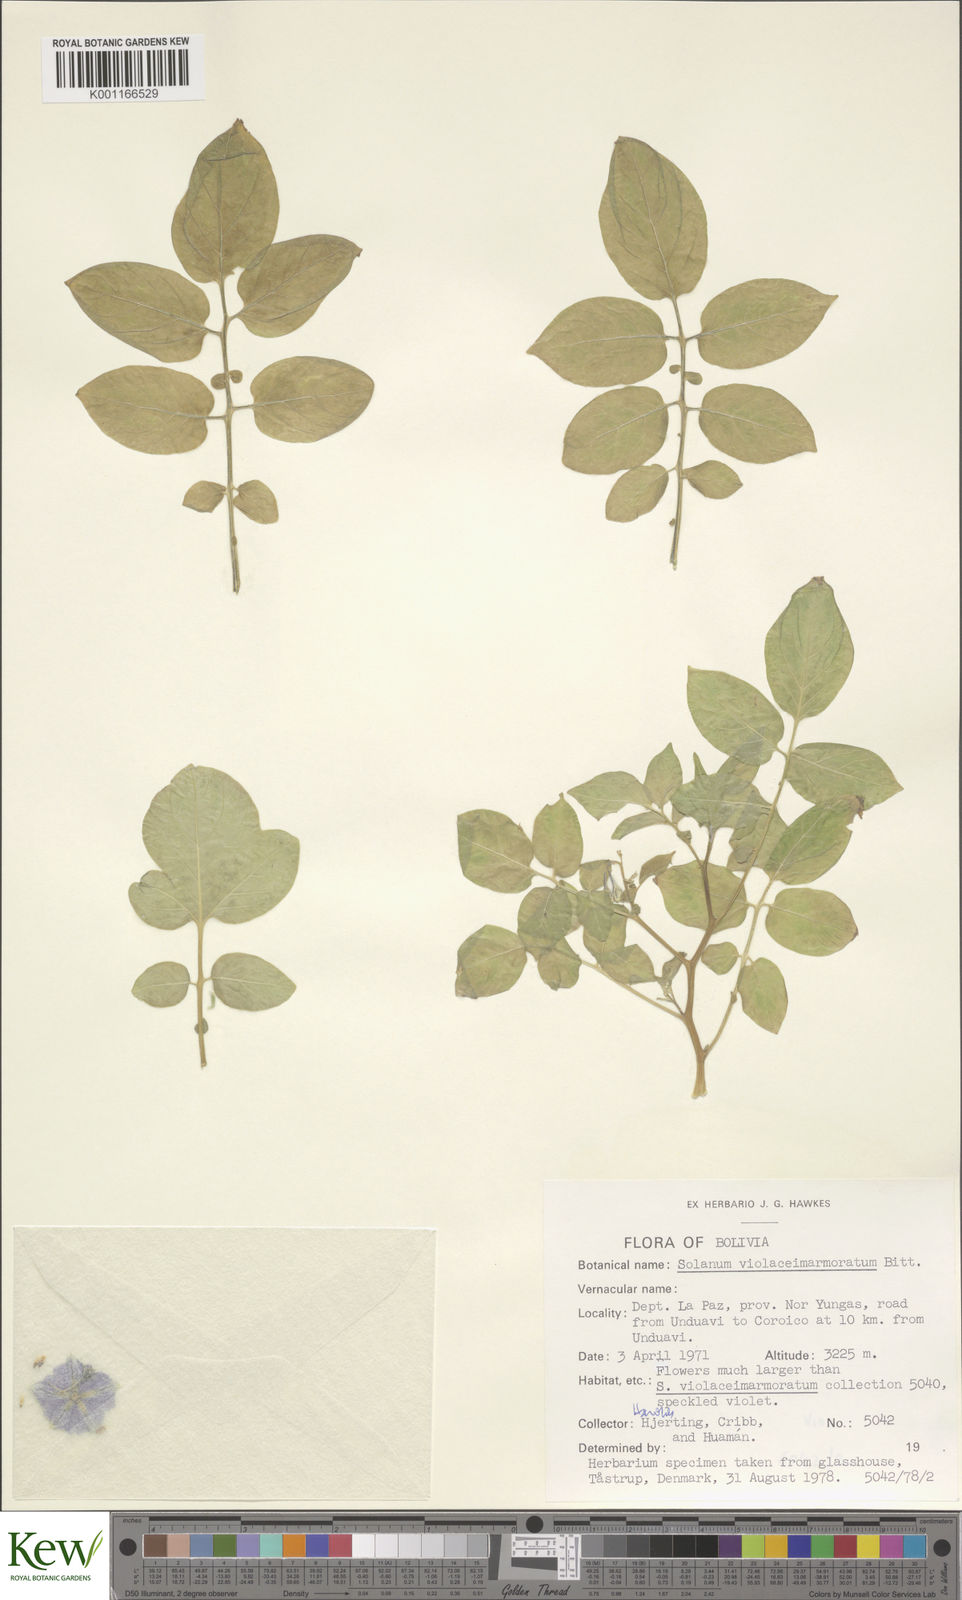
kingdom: Plantae
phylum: Tracheophyta
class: Magnoliopsida
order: Solanales
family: Solanaceae
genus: Solanum
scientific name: Solanum violaceimarmoratum
